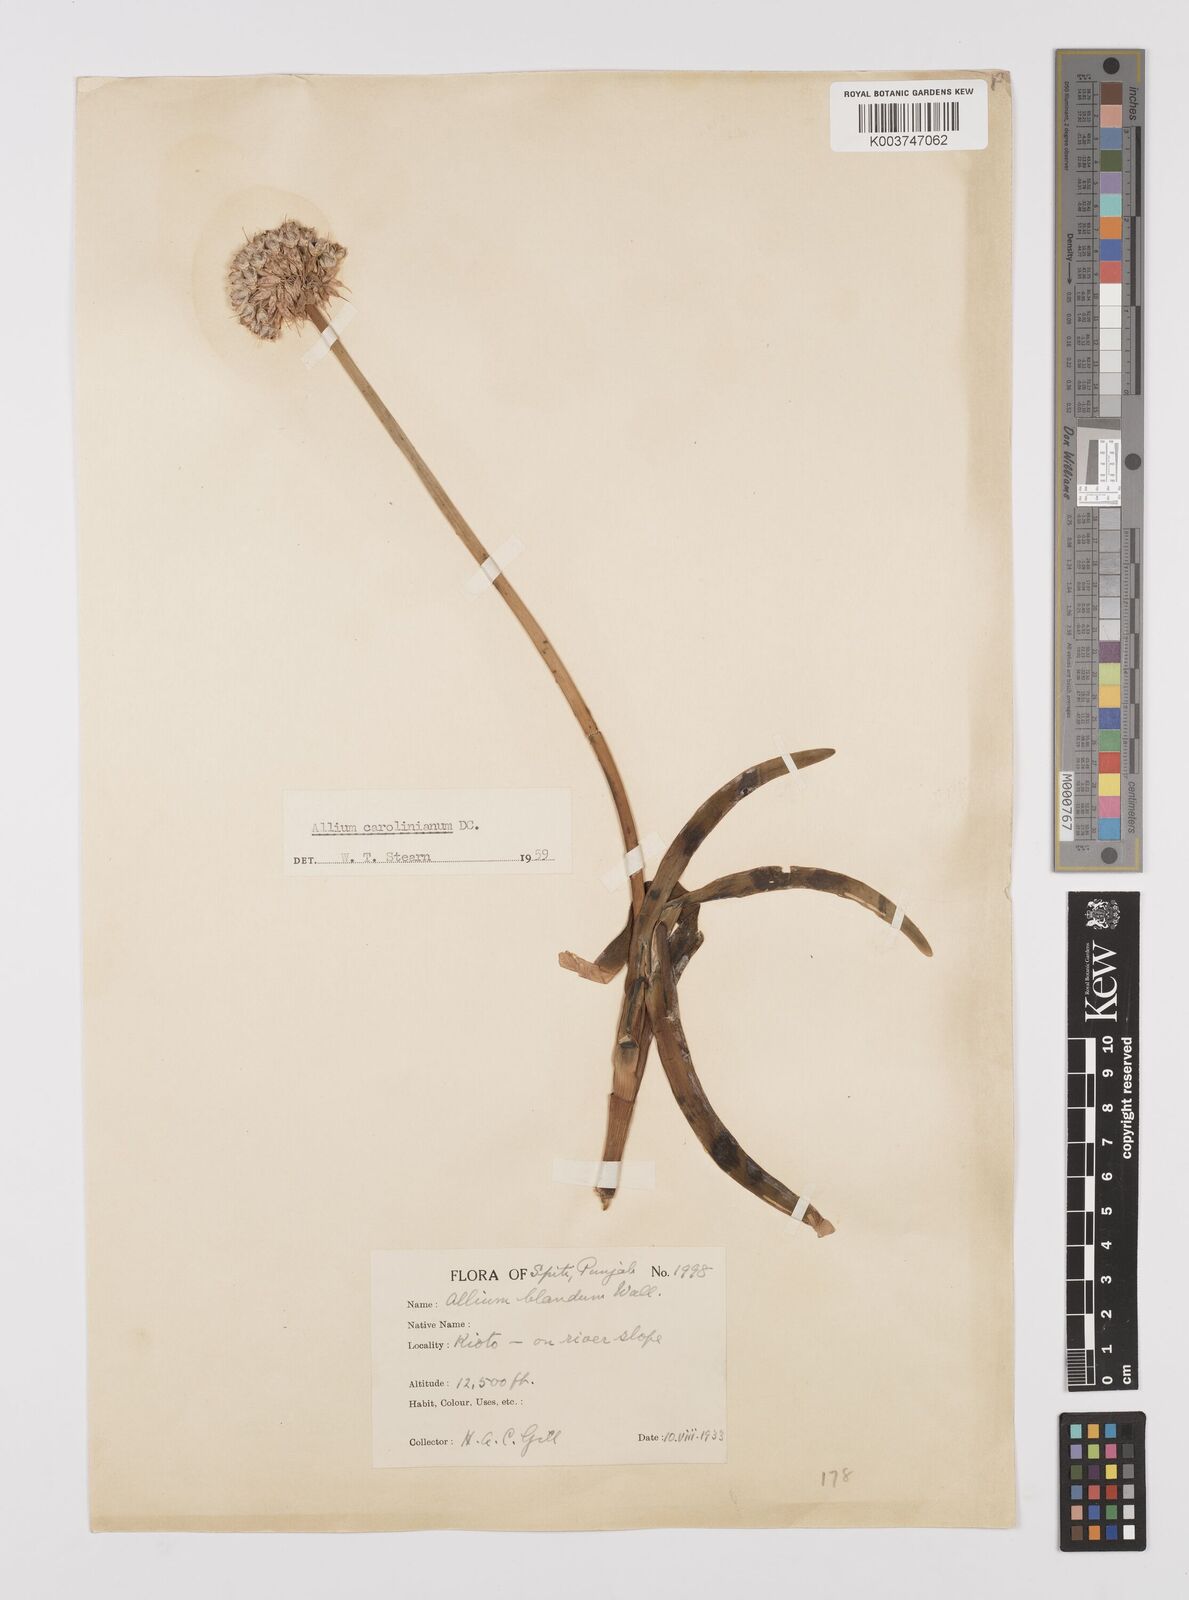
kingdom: Plantae
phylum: Tracheophyta
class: Liliopsida
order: Asparagales
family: Amaryllidaceae
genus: Allium
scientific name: Allium blandum
